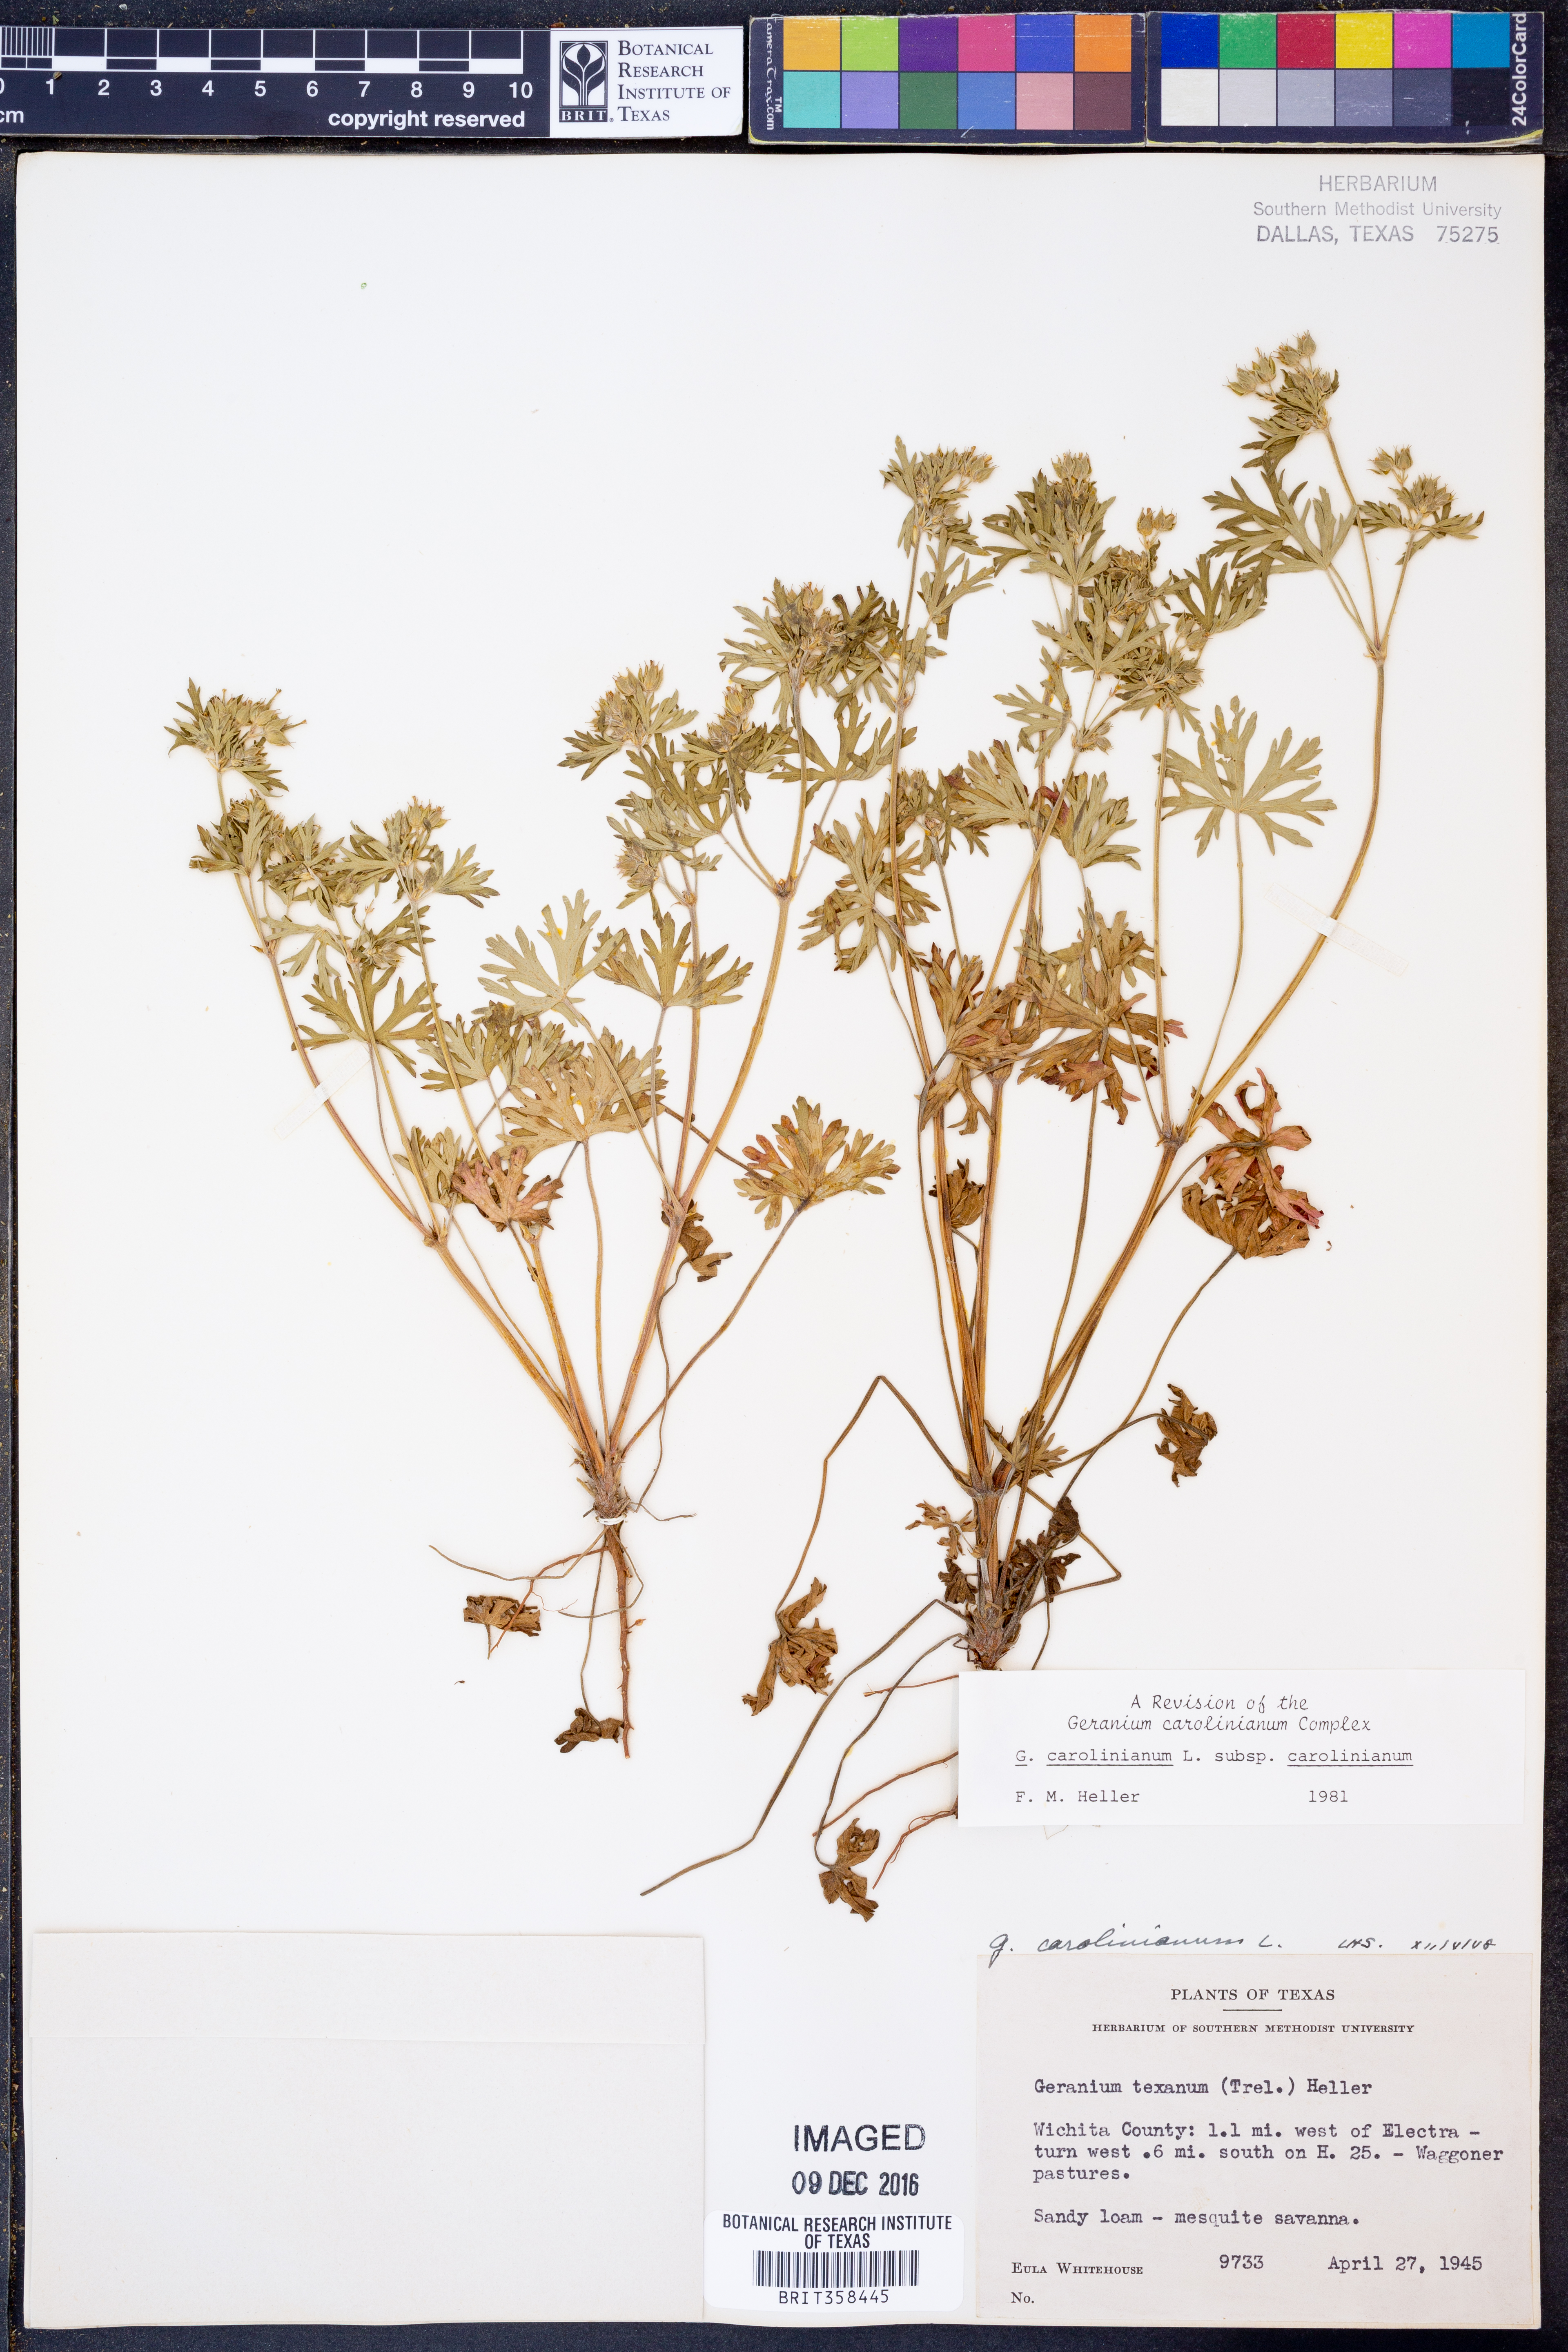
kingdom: Plantae
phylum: Tracheophyta
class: Magnoliopsida
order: Geraniales
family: Geraniaceae
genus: Geranium
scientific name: Geranium carolinianum
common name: Carolina crane's-bill
